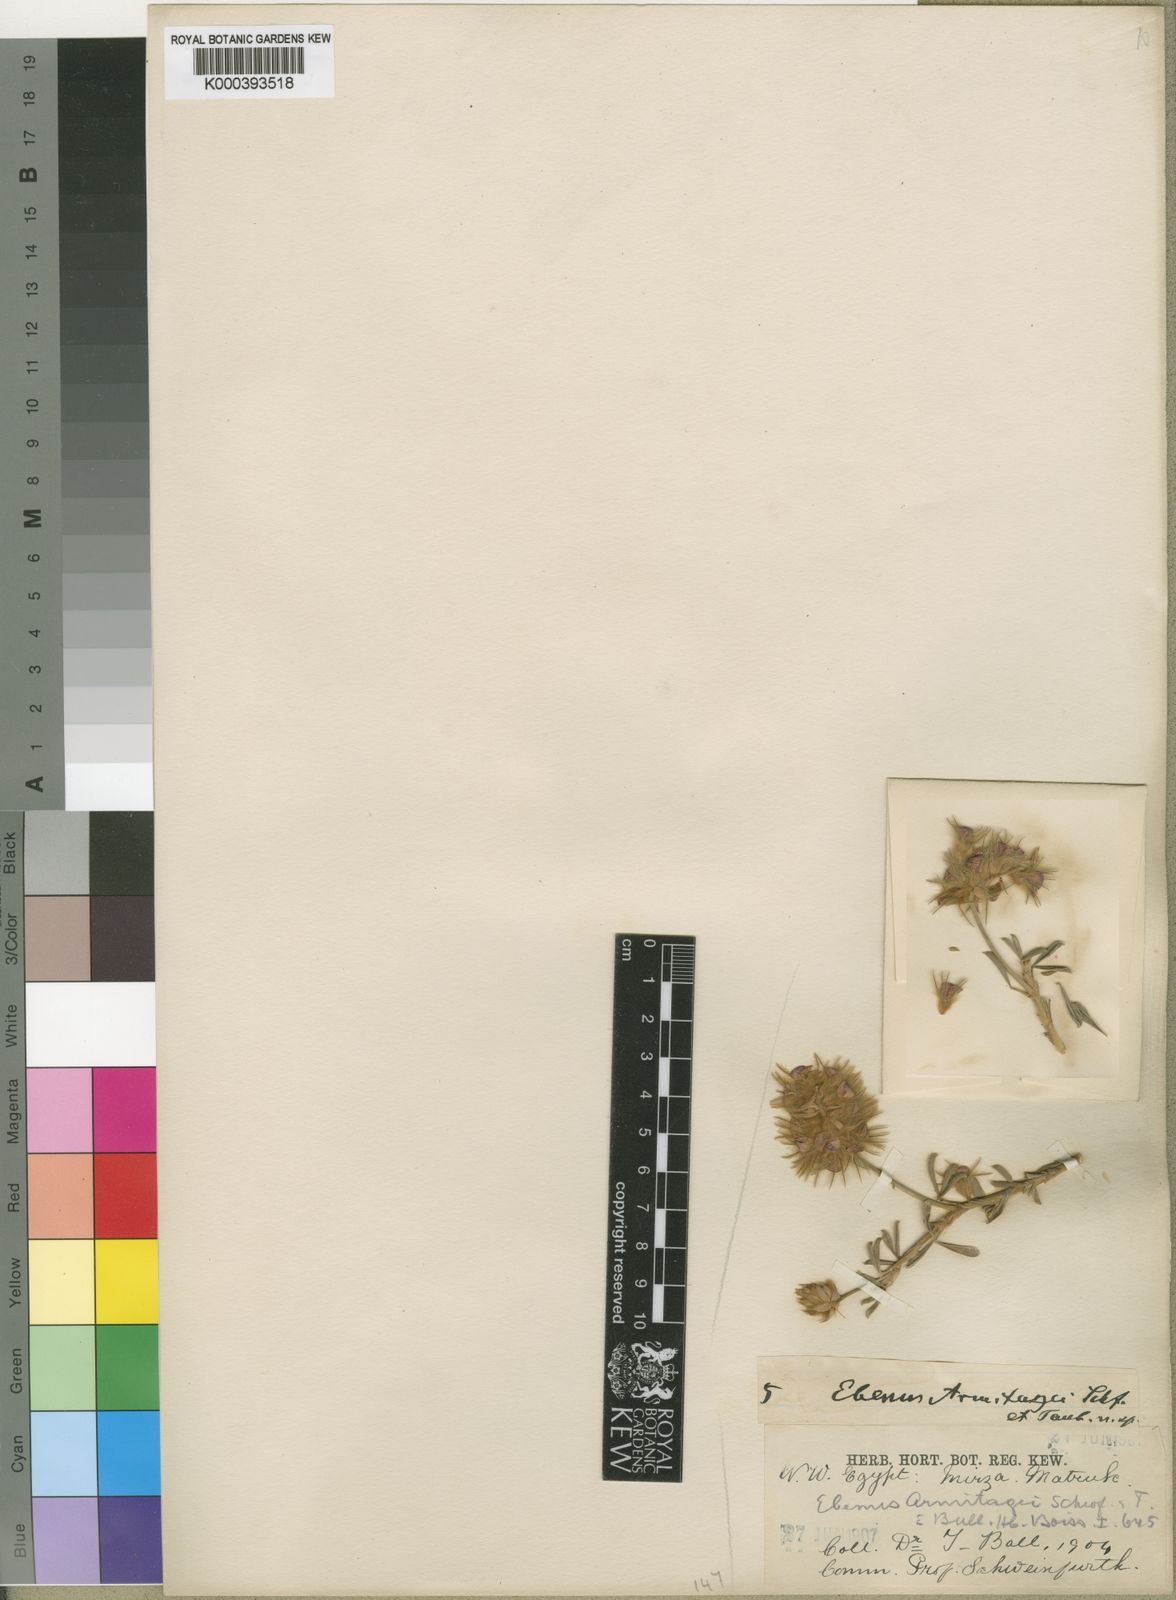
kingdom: Plantae
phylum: Tracheophyta
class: Magnoliopsida
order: Fabales
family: Fabaceae
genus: Ebenus
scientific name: Ebenus armitagei
